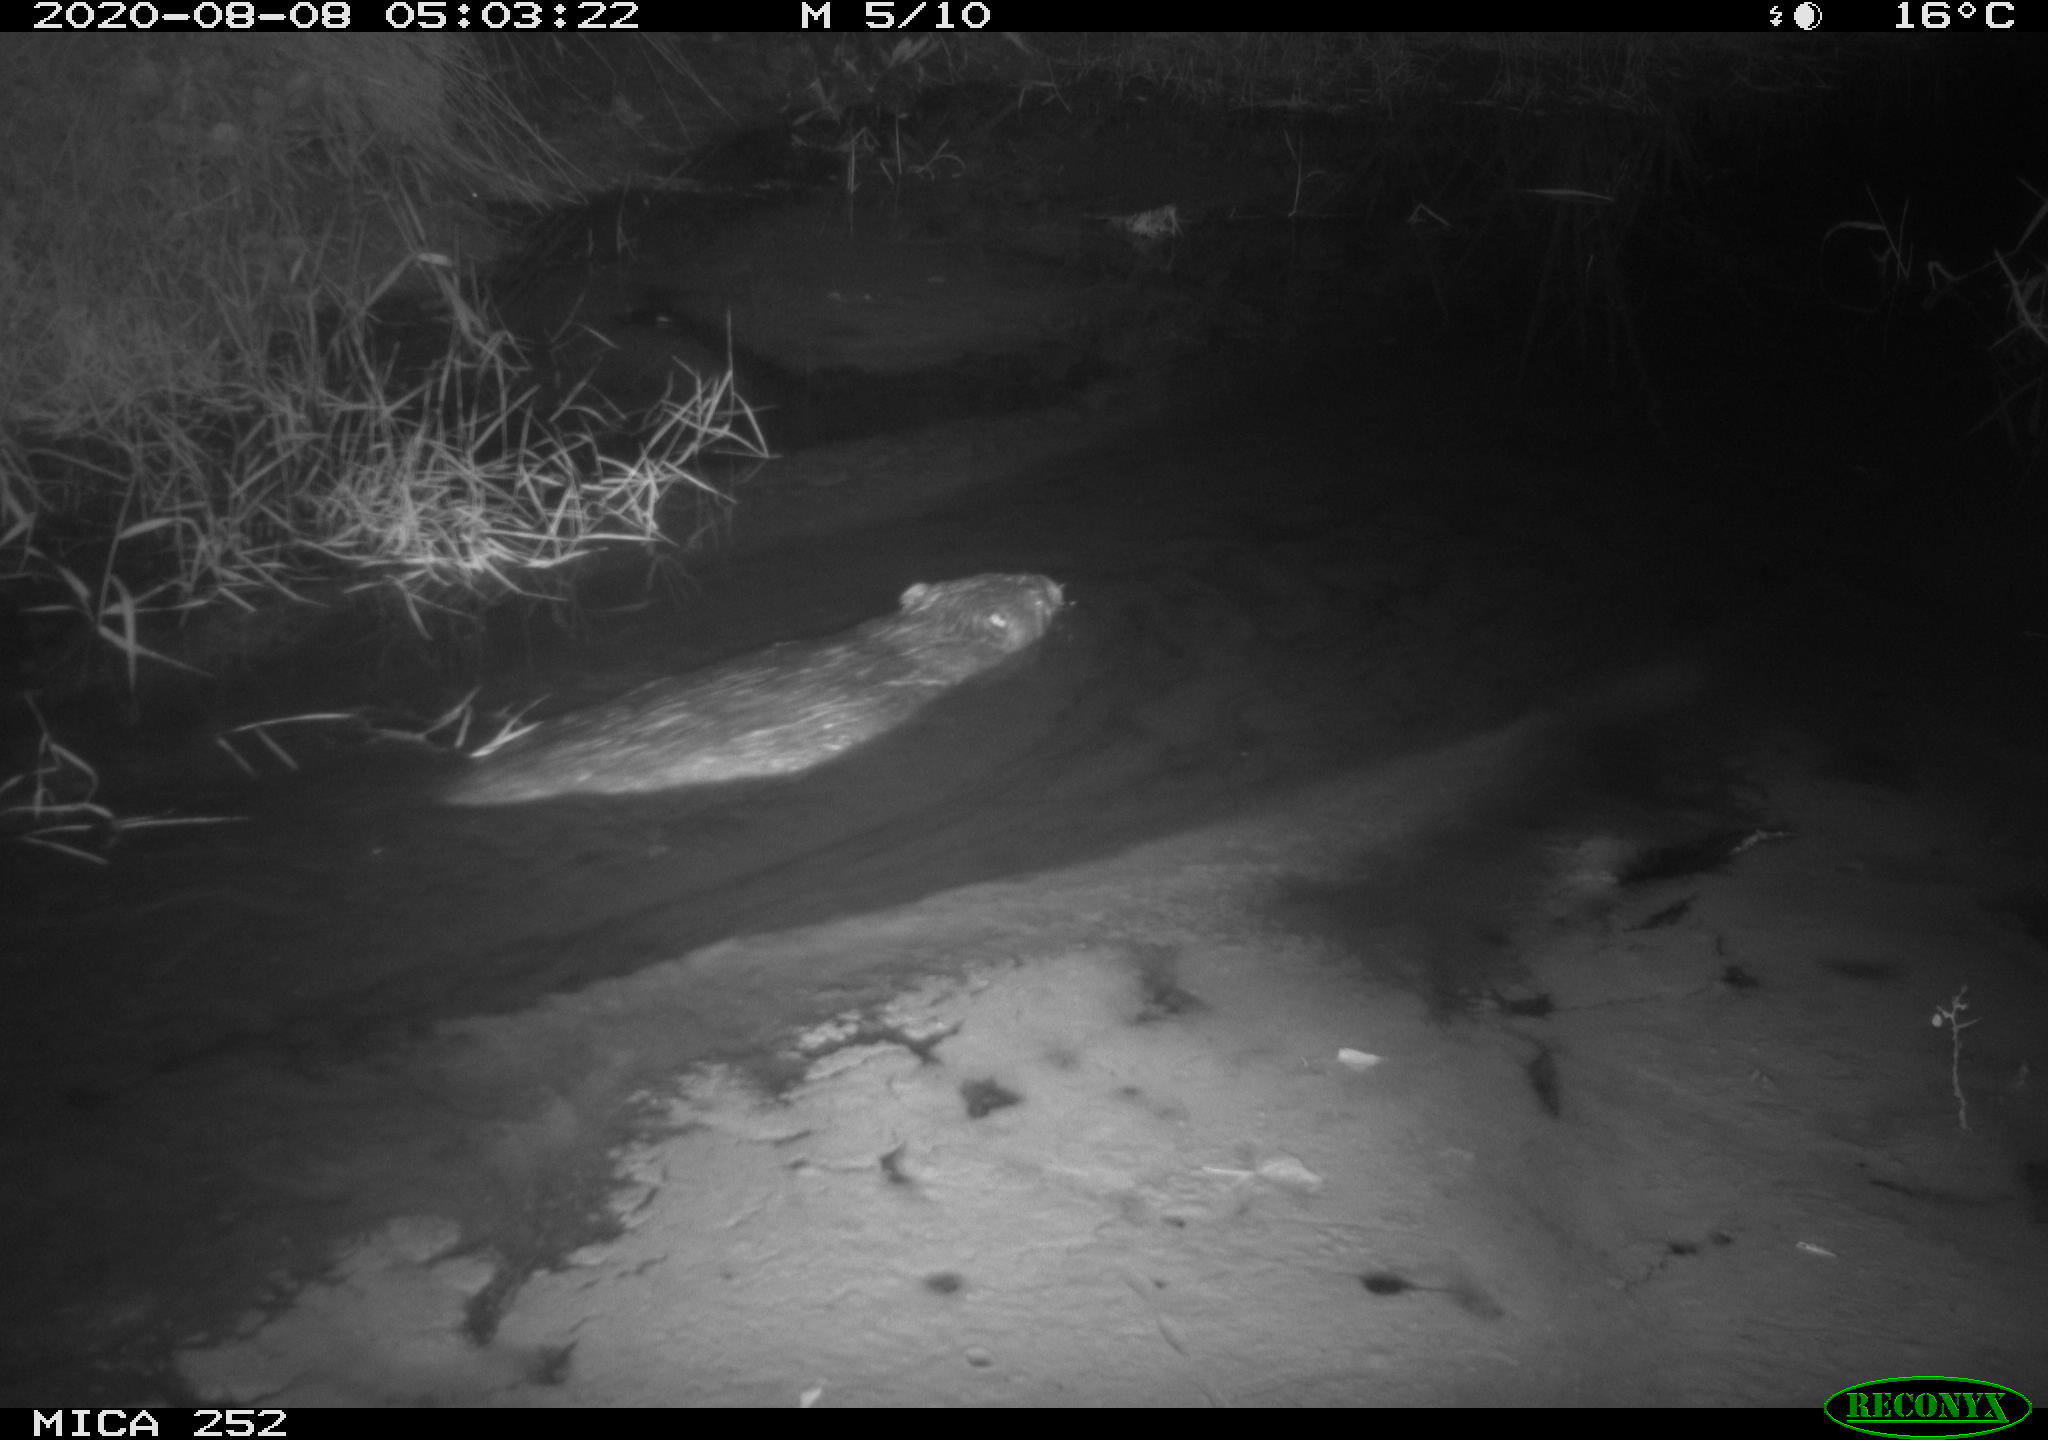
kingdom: Animalia
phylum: Chordata
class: Mammalia
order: Rodentia
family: Castoridae
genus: Castor
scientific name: Castor fiber
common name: Eurasian beaver
